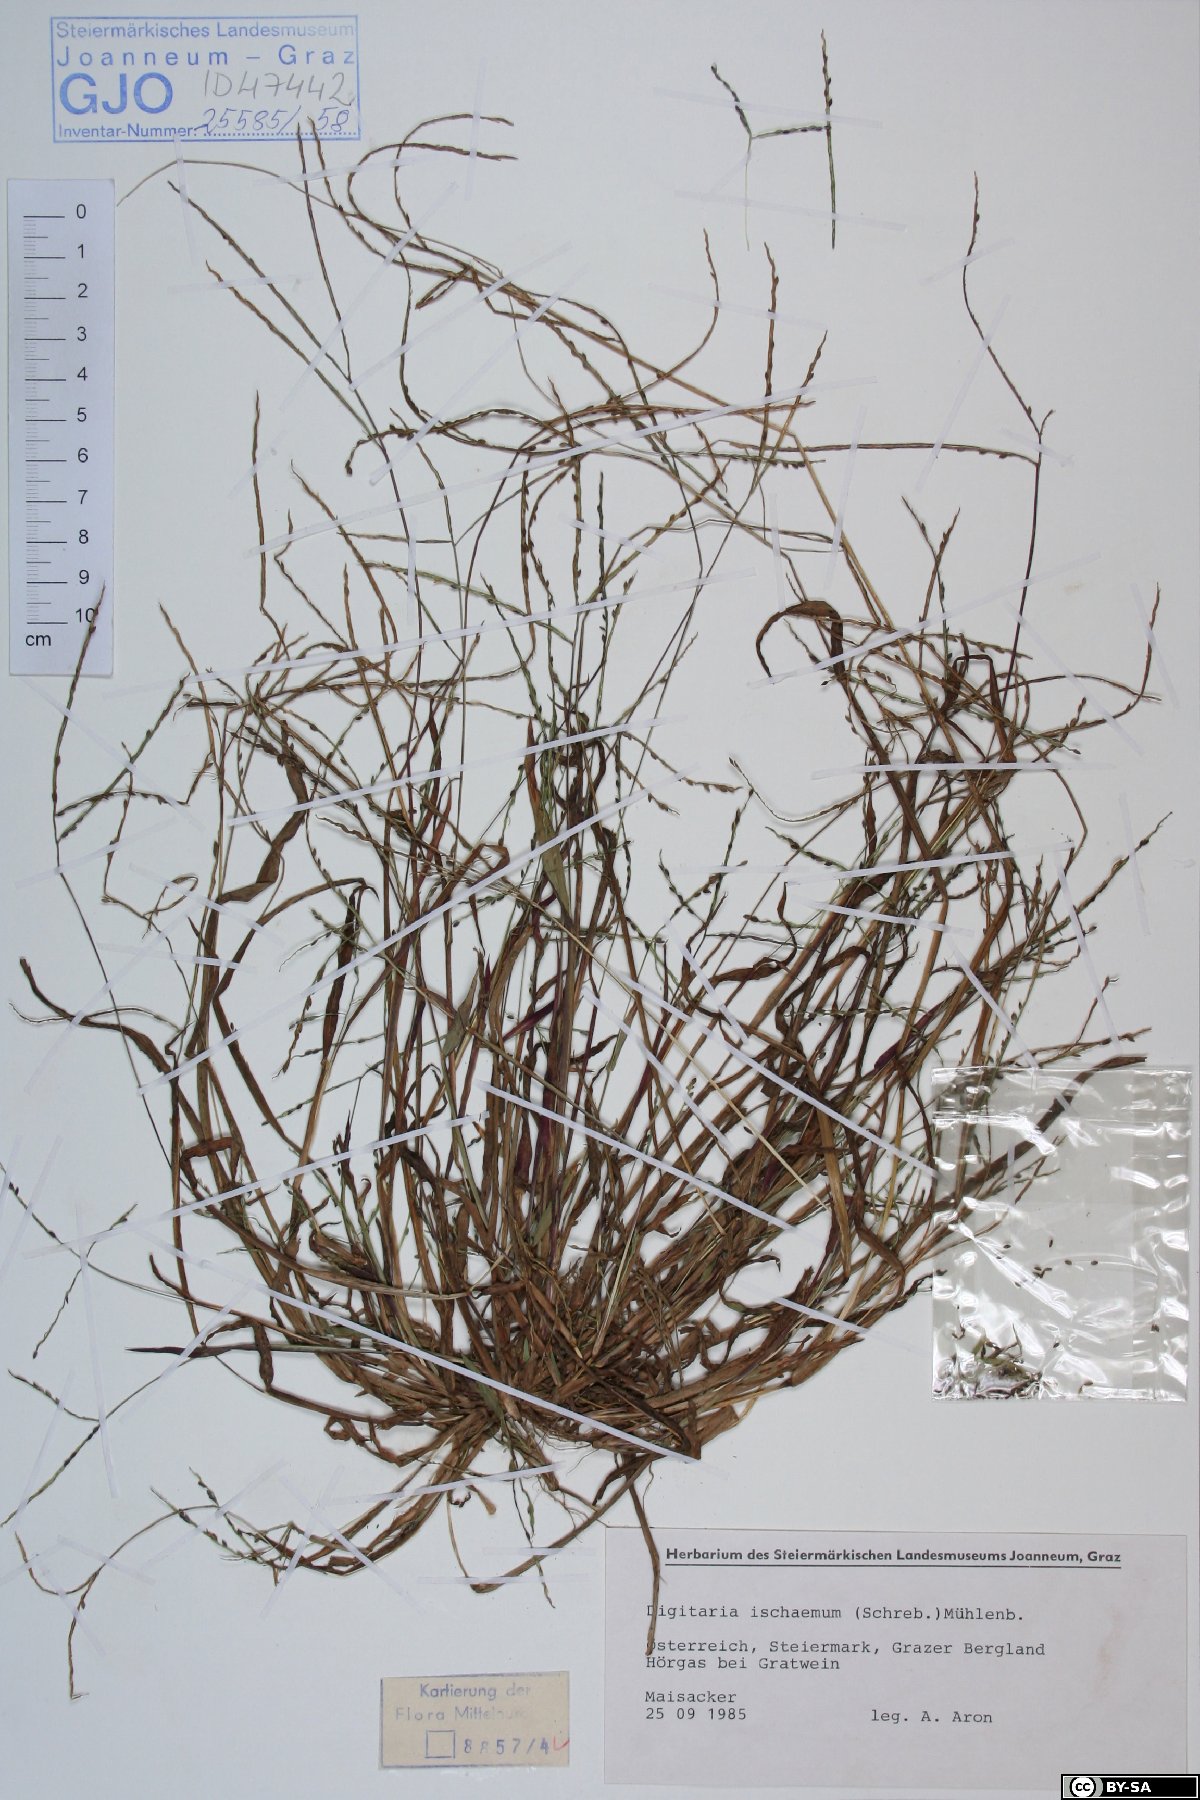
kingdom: Plantae
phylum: Tracheophyta
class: Liliopsida
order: Poales
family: Poaceae
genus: Digitaria
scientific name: Digitaria ischaemum
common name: Smooth crabgrass
